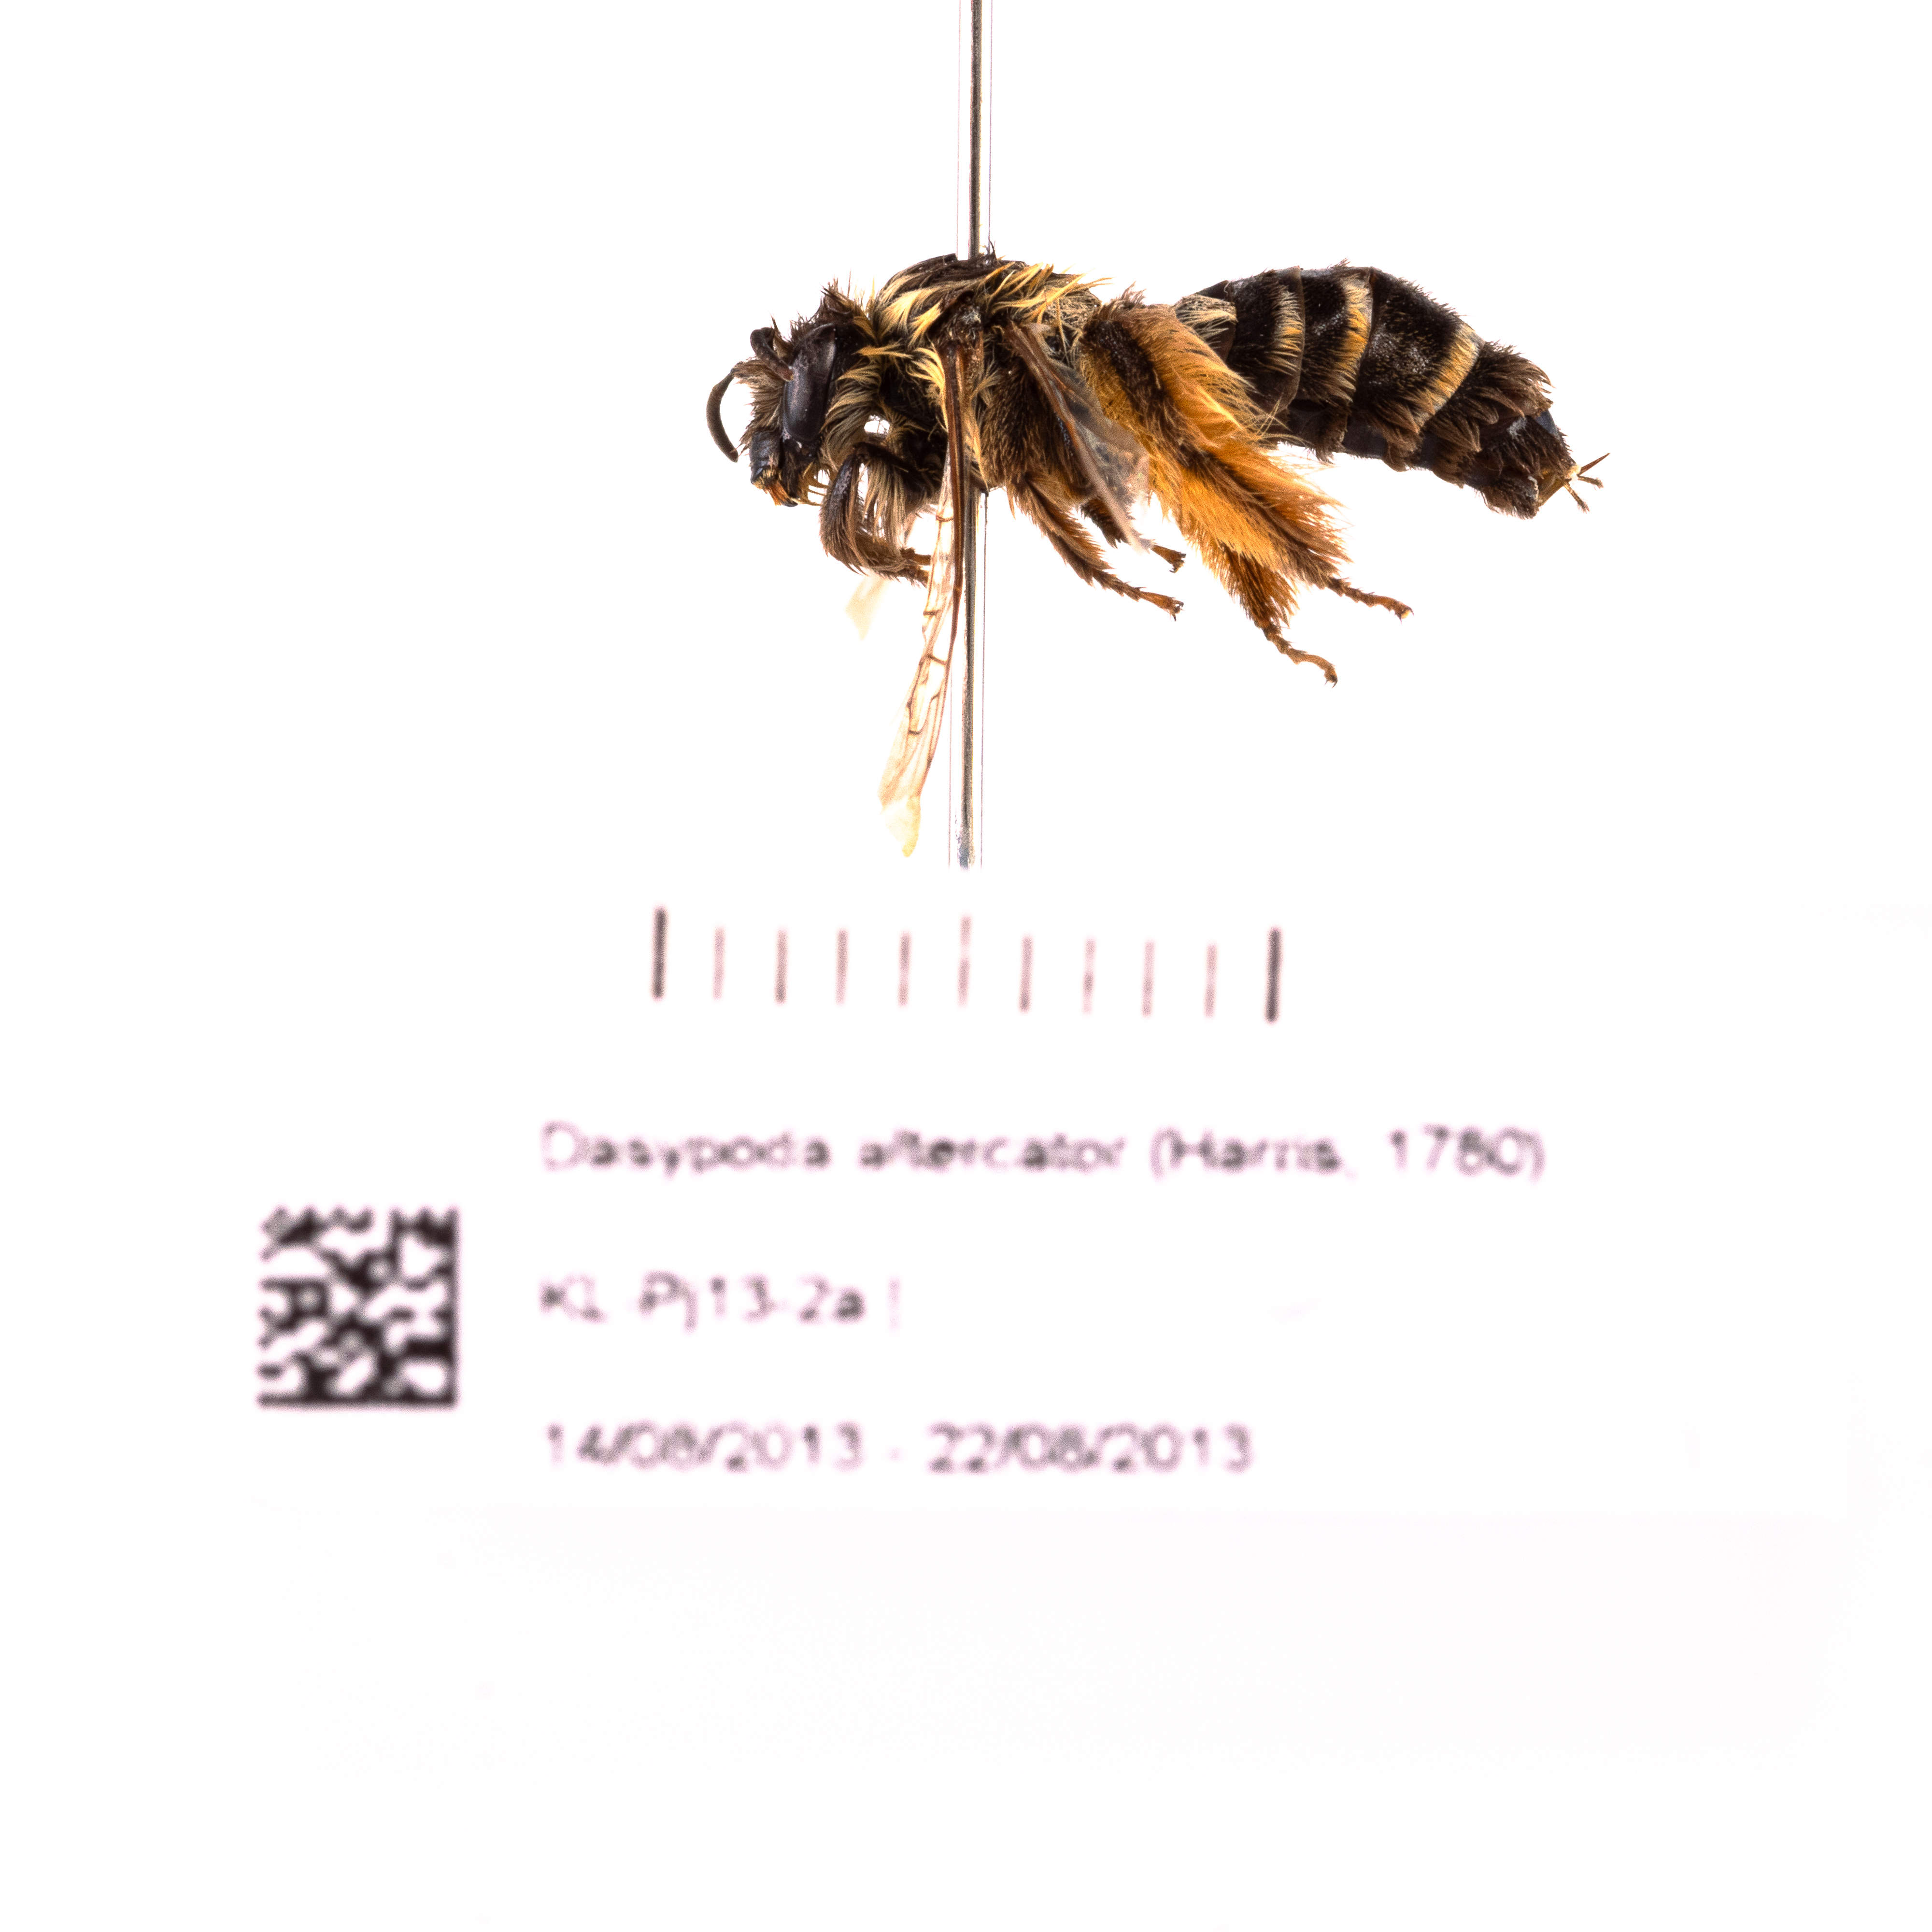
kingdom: Animalia
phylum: Arthropoda
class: Insecta
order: Hymenoptera
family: Melittidae
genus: Dasypoda
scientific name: Dasypoda hirtipes
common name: Pantaloon bee
